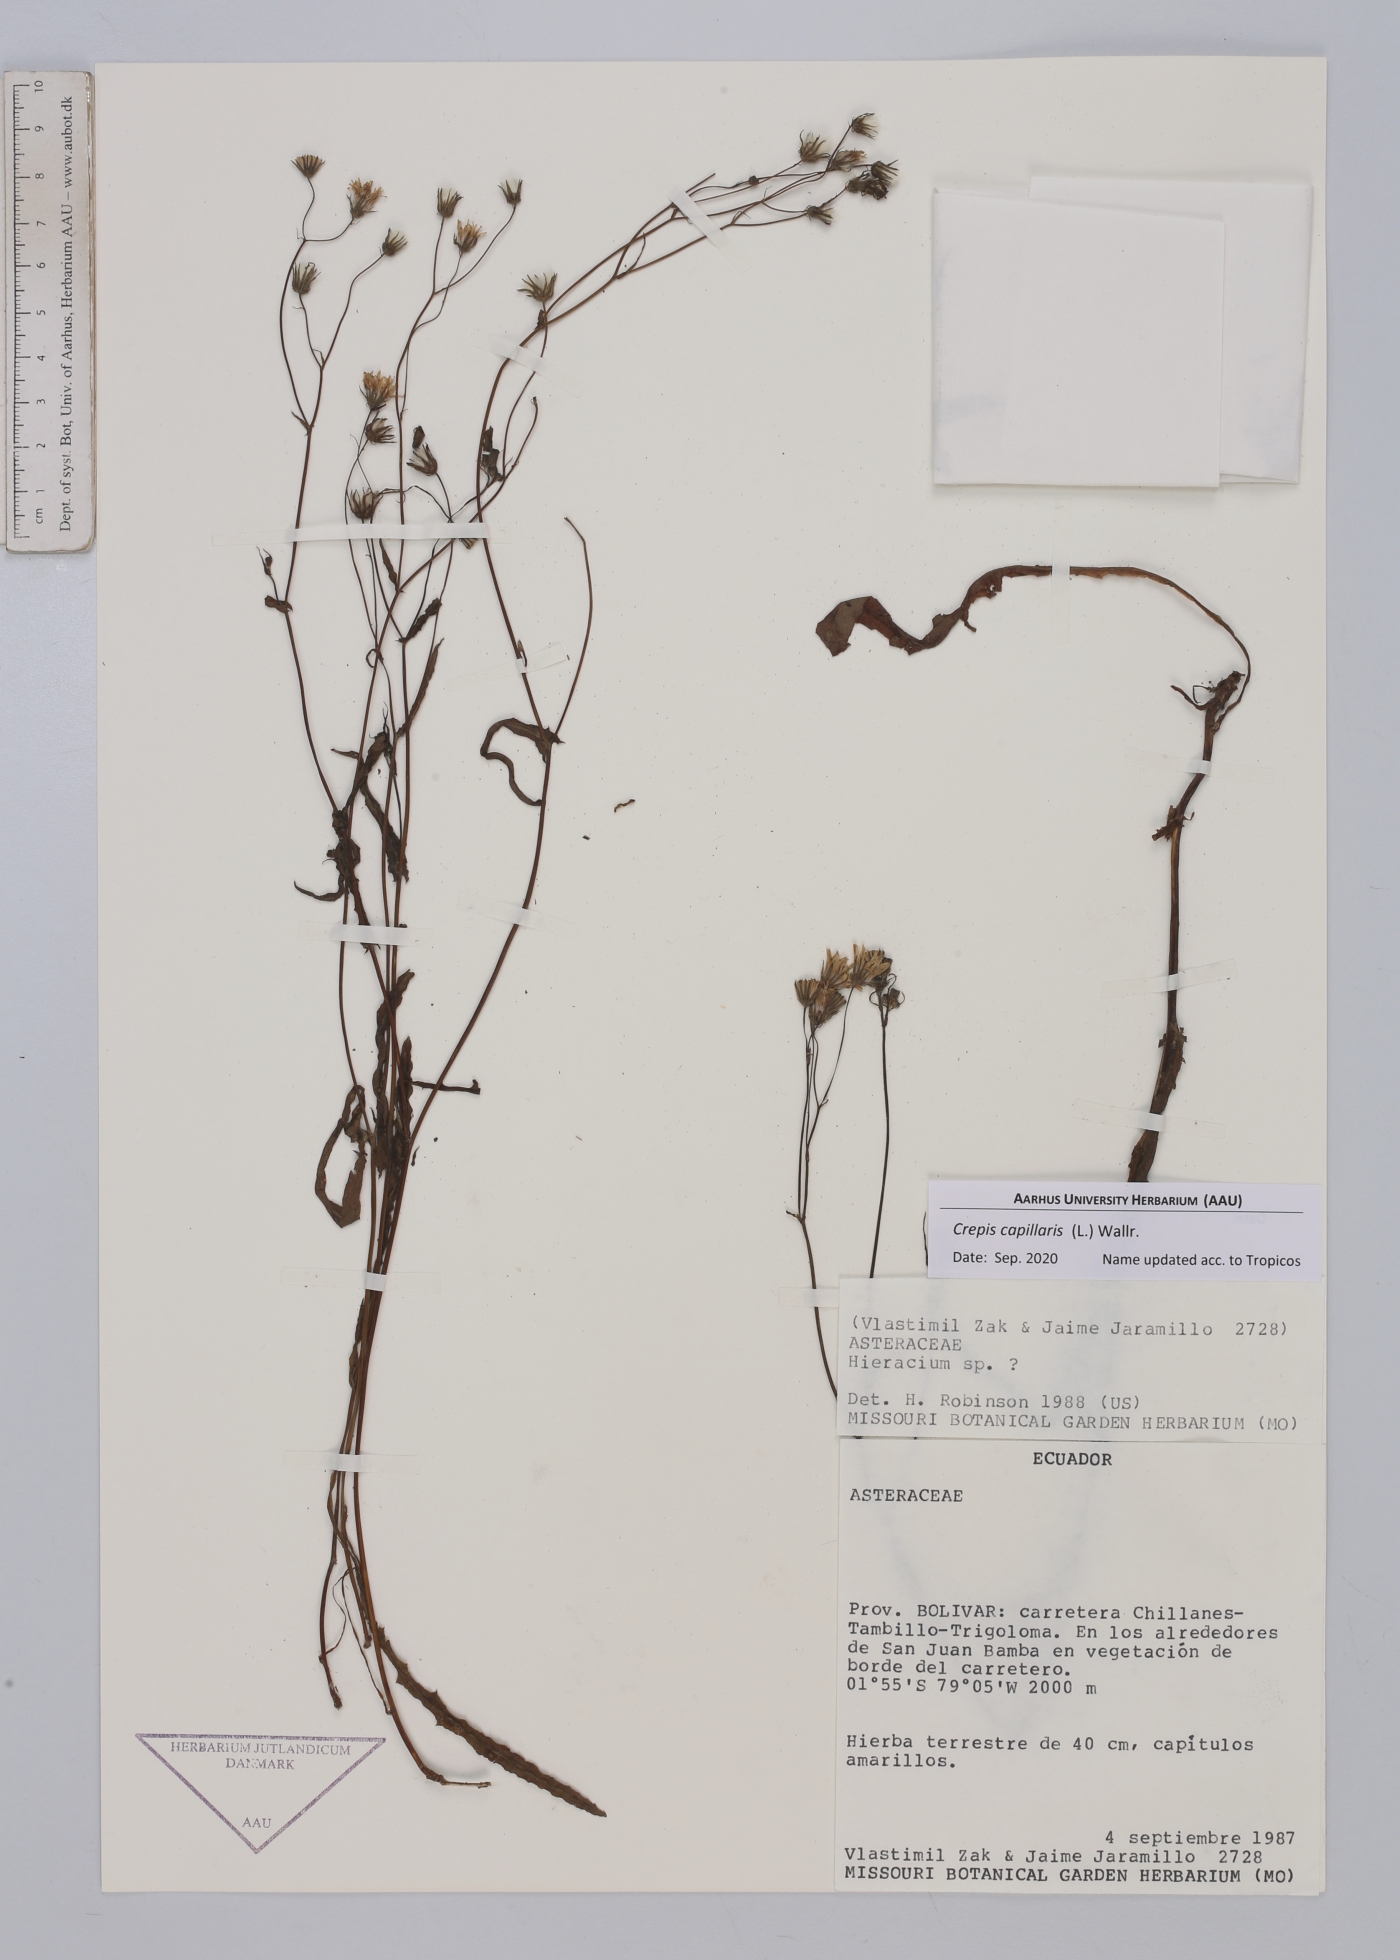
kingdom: Plantae
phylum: Tracheophyta
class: Magnoliopsida
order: Asterales
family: Asteraceae
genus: Crepis
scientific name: Crepis capillaris
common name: Smooth hawksbeard
